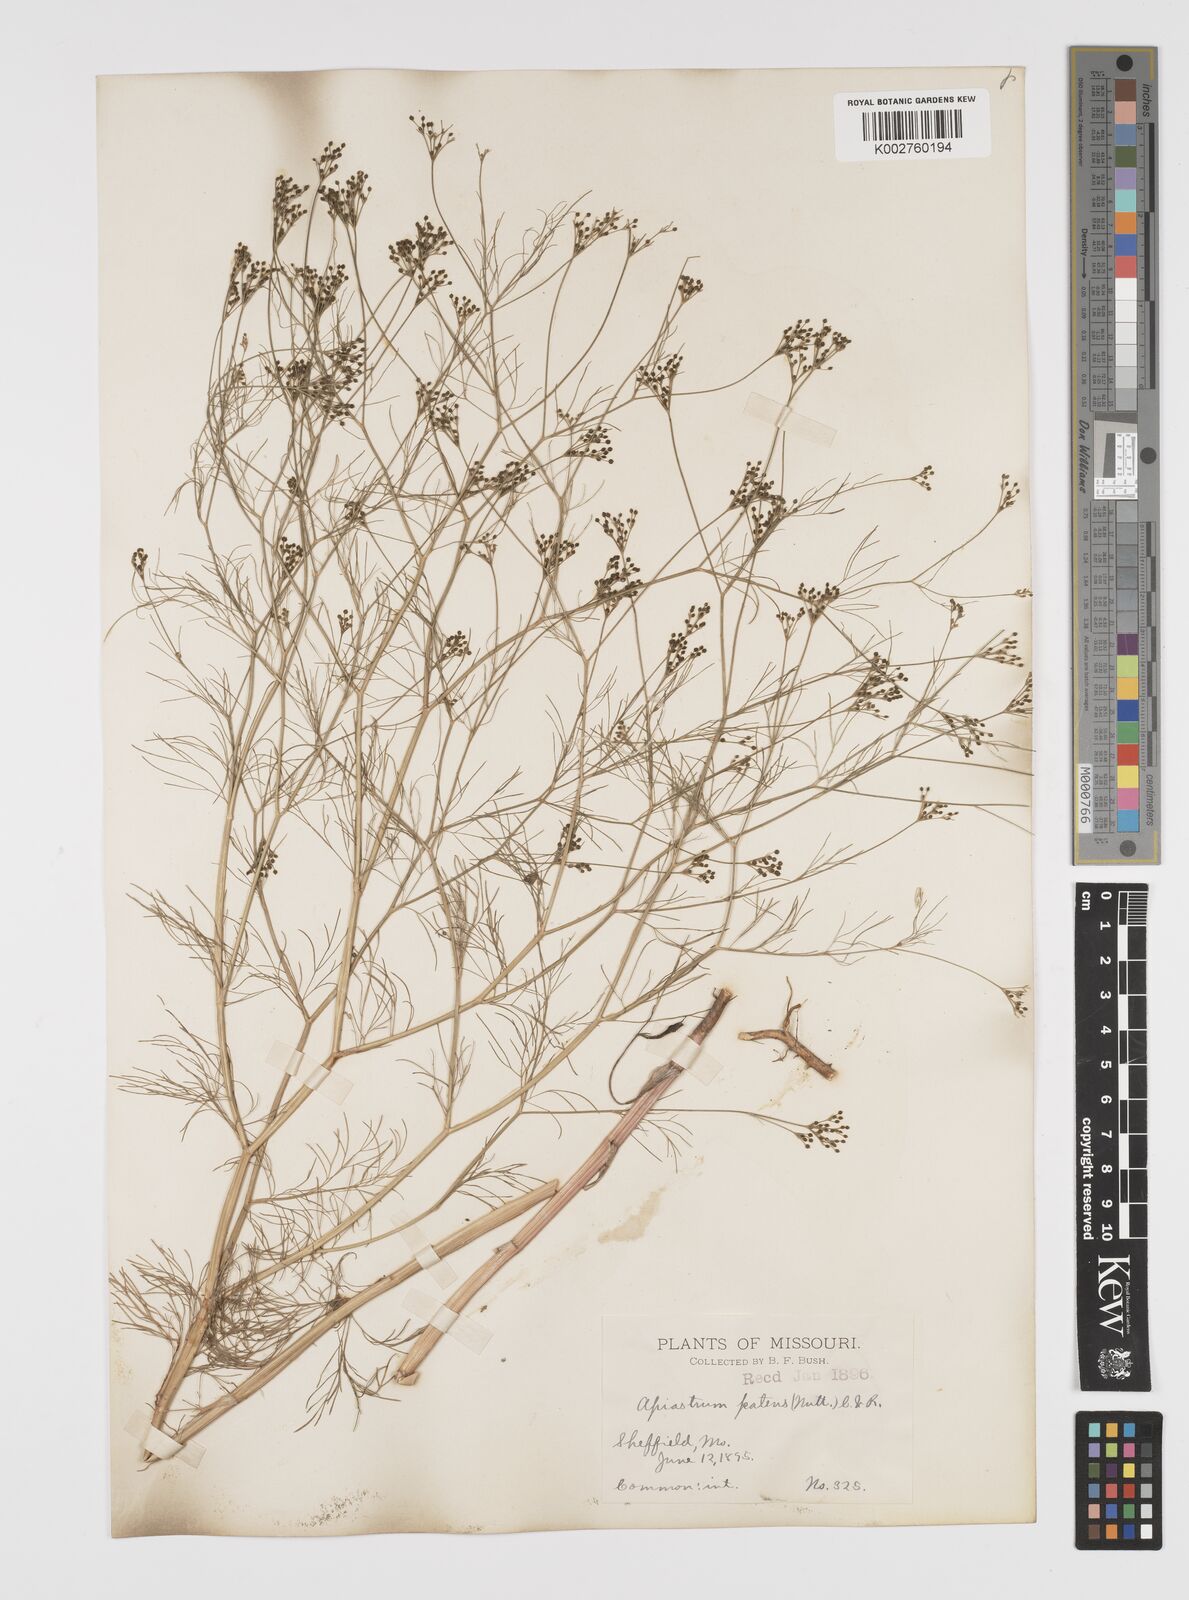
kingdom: Plantae
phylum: Tracheophyta
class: Magnoliopsida
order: Apiales
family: Apiaceae
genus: Spermolepis
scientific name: Spermolepis inermis
